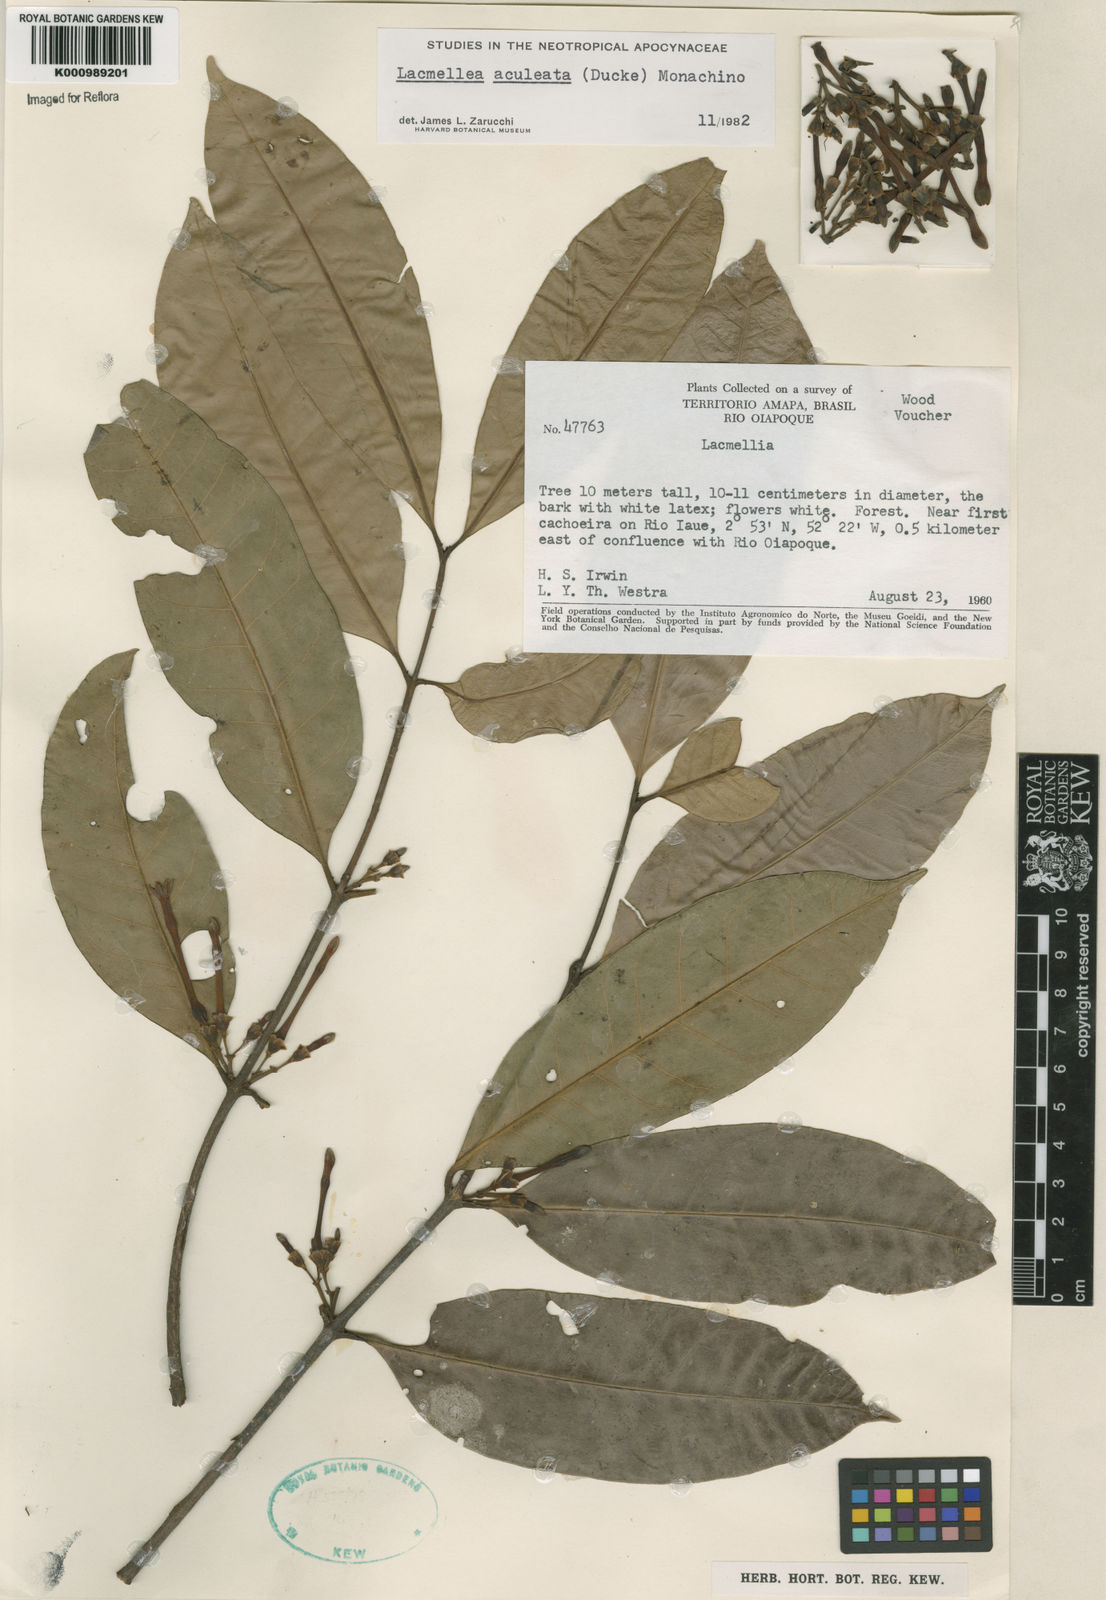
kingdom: Plantae
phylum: Tracheophyta
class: Magnoliopsida
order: Gentianales
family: Apocynaceae
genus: Lacmellea
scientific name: Lacmellea aculeata
